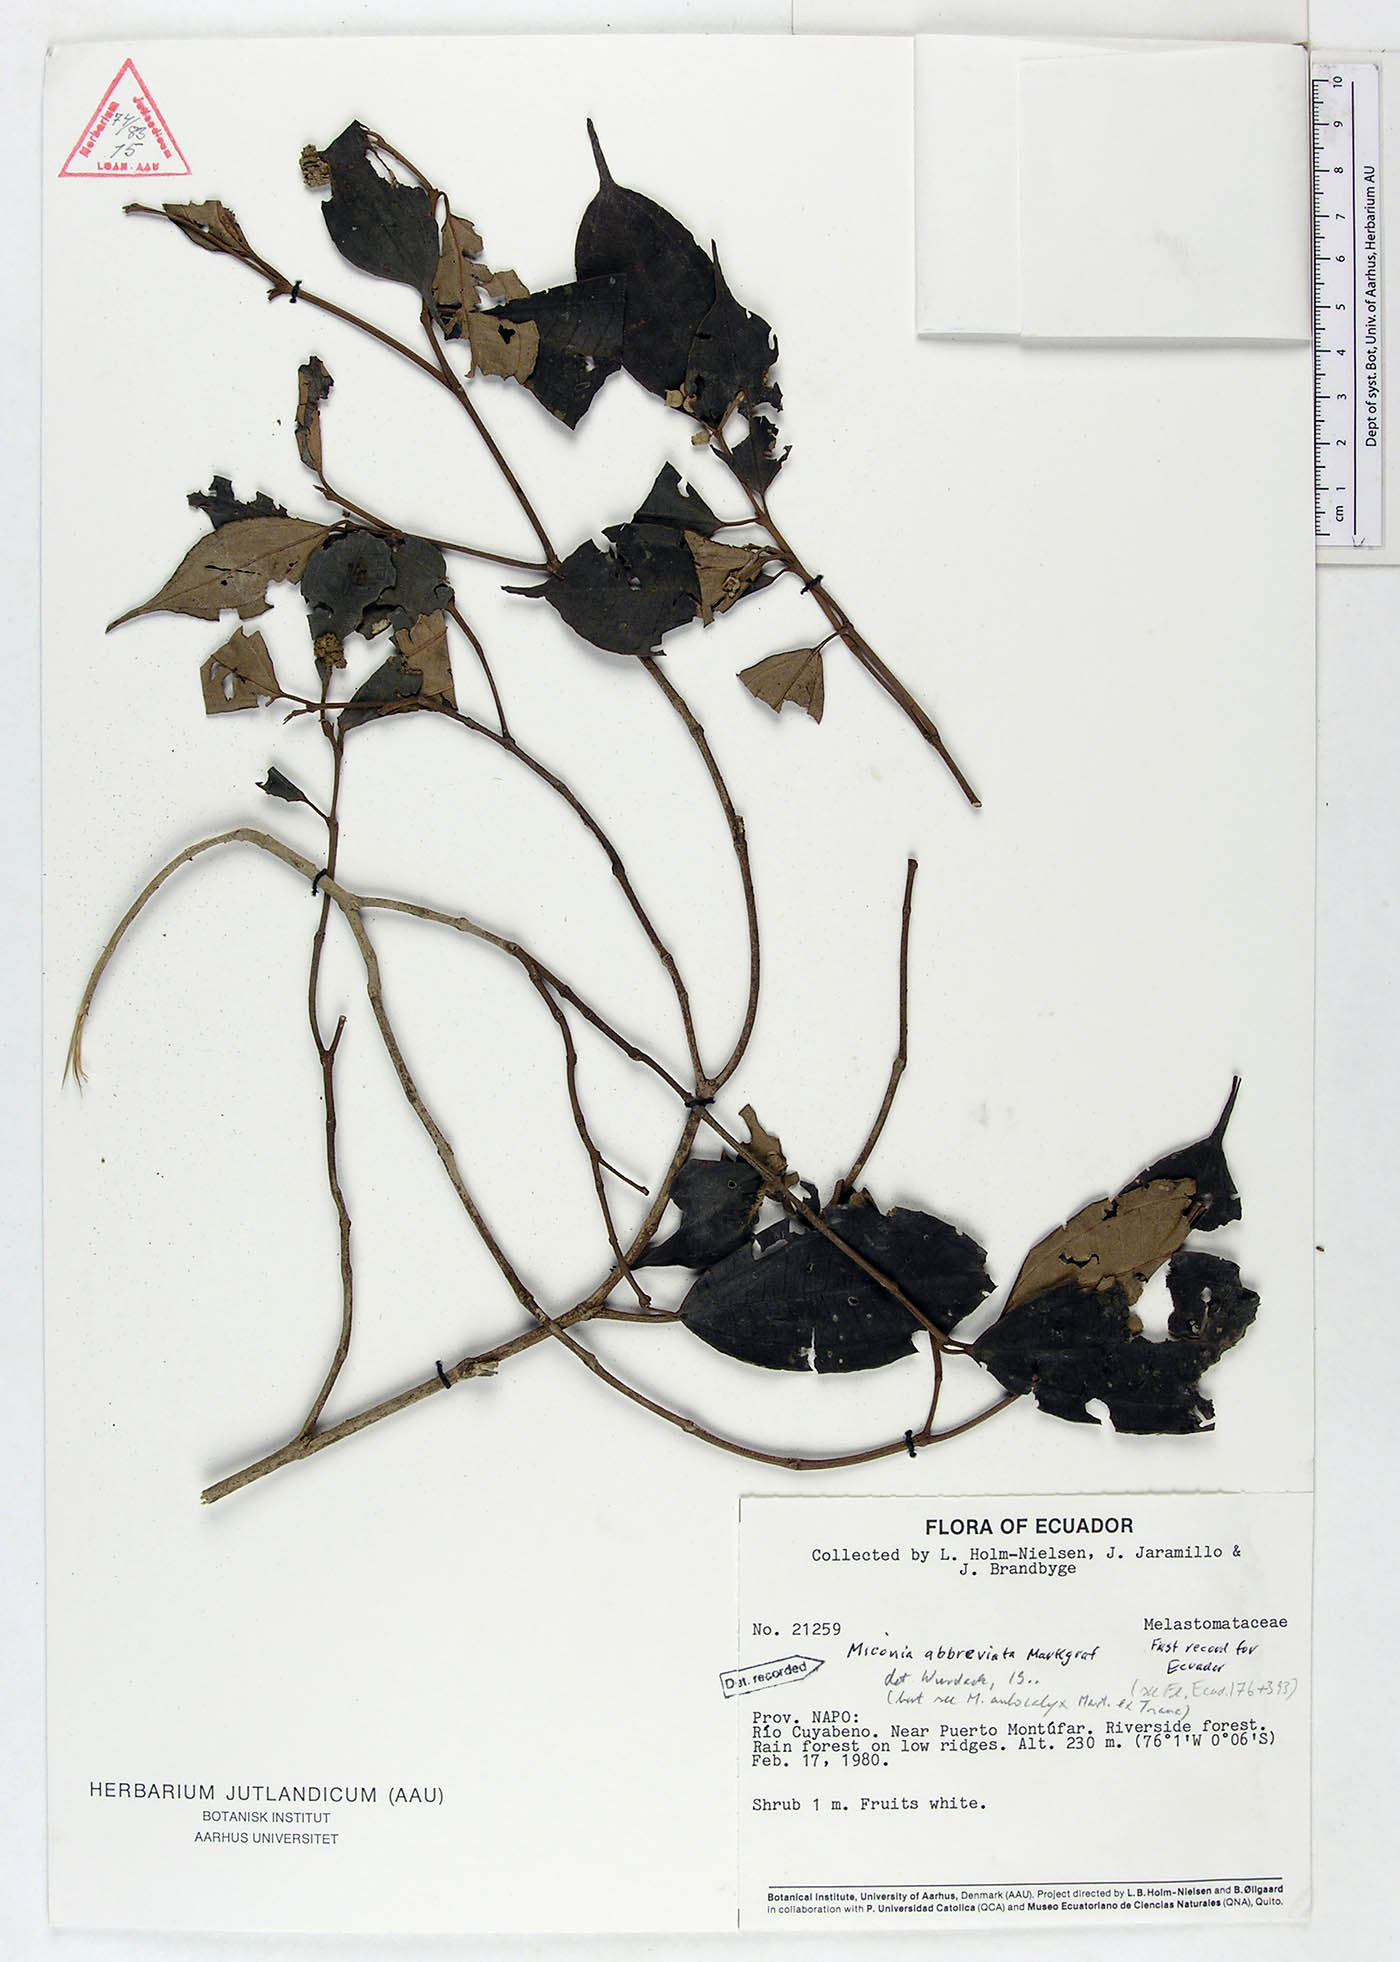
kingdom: Plantae
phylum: Tracheophyta
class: Magnoliopsida
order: Myrtales
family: Melastomataceae
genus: Miconia
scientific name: Miconia abbreviata
